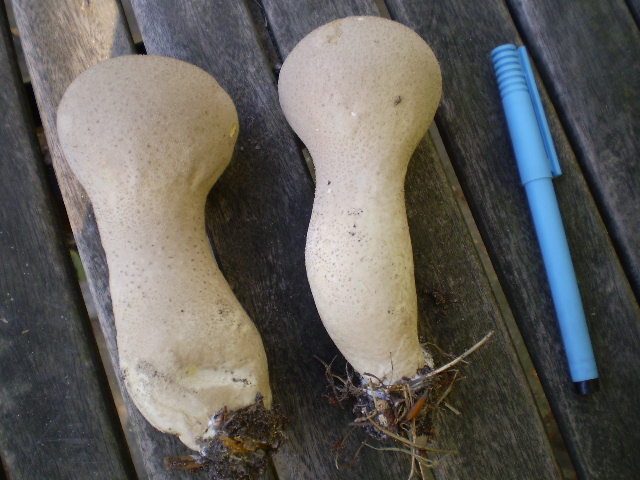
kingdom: Fungi
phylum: Basidiomycota
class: Agaricomycetes
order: Agaricales
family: Lycoperdaceae
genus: Lycoperdon
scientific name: Lycoperdon excipuliforme
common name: højstokket støvbold
